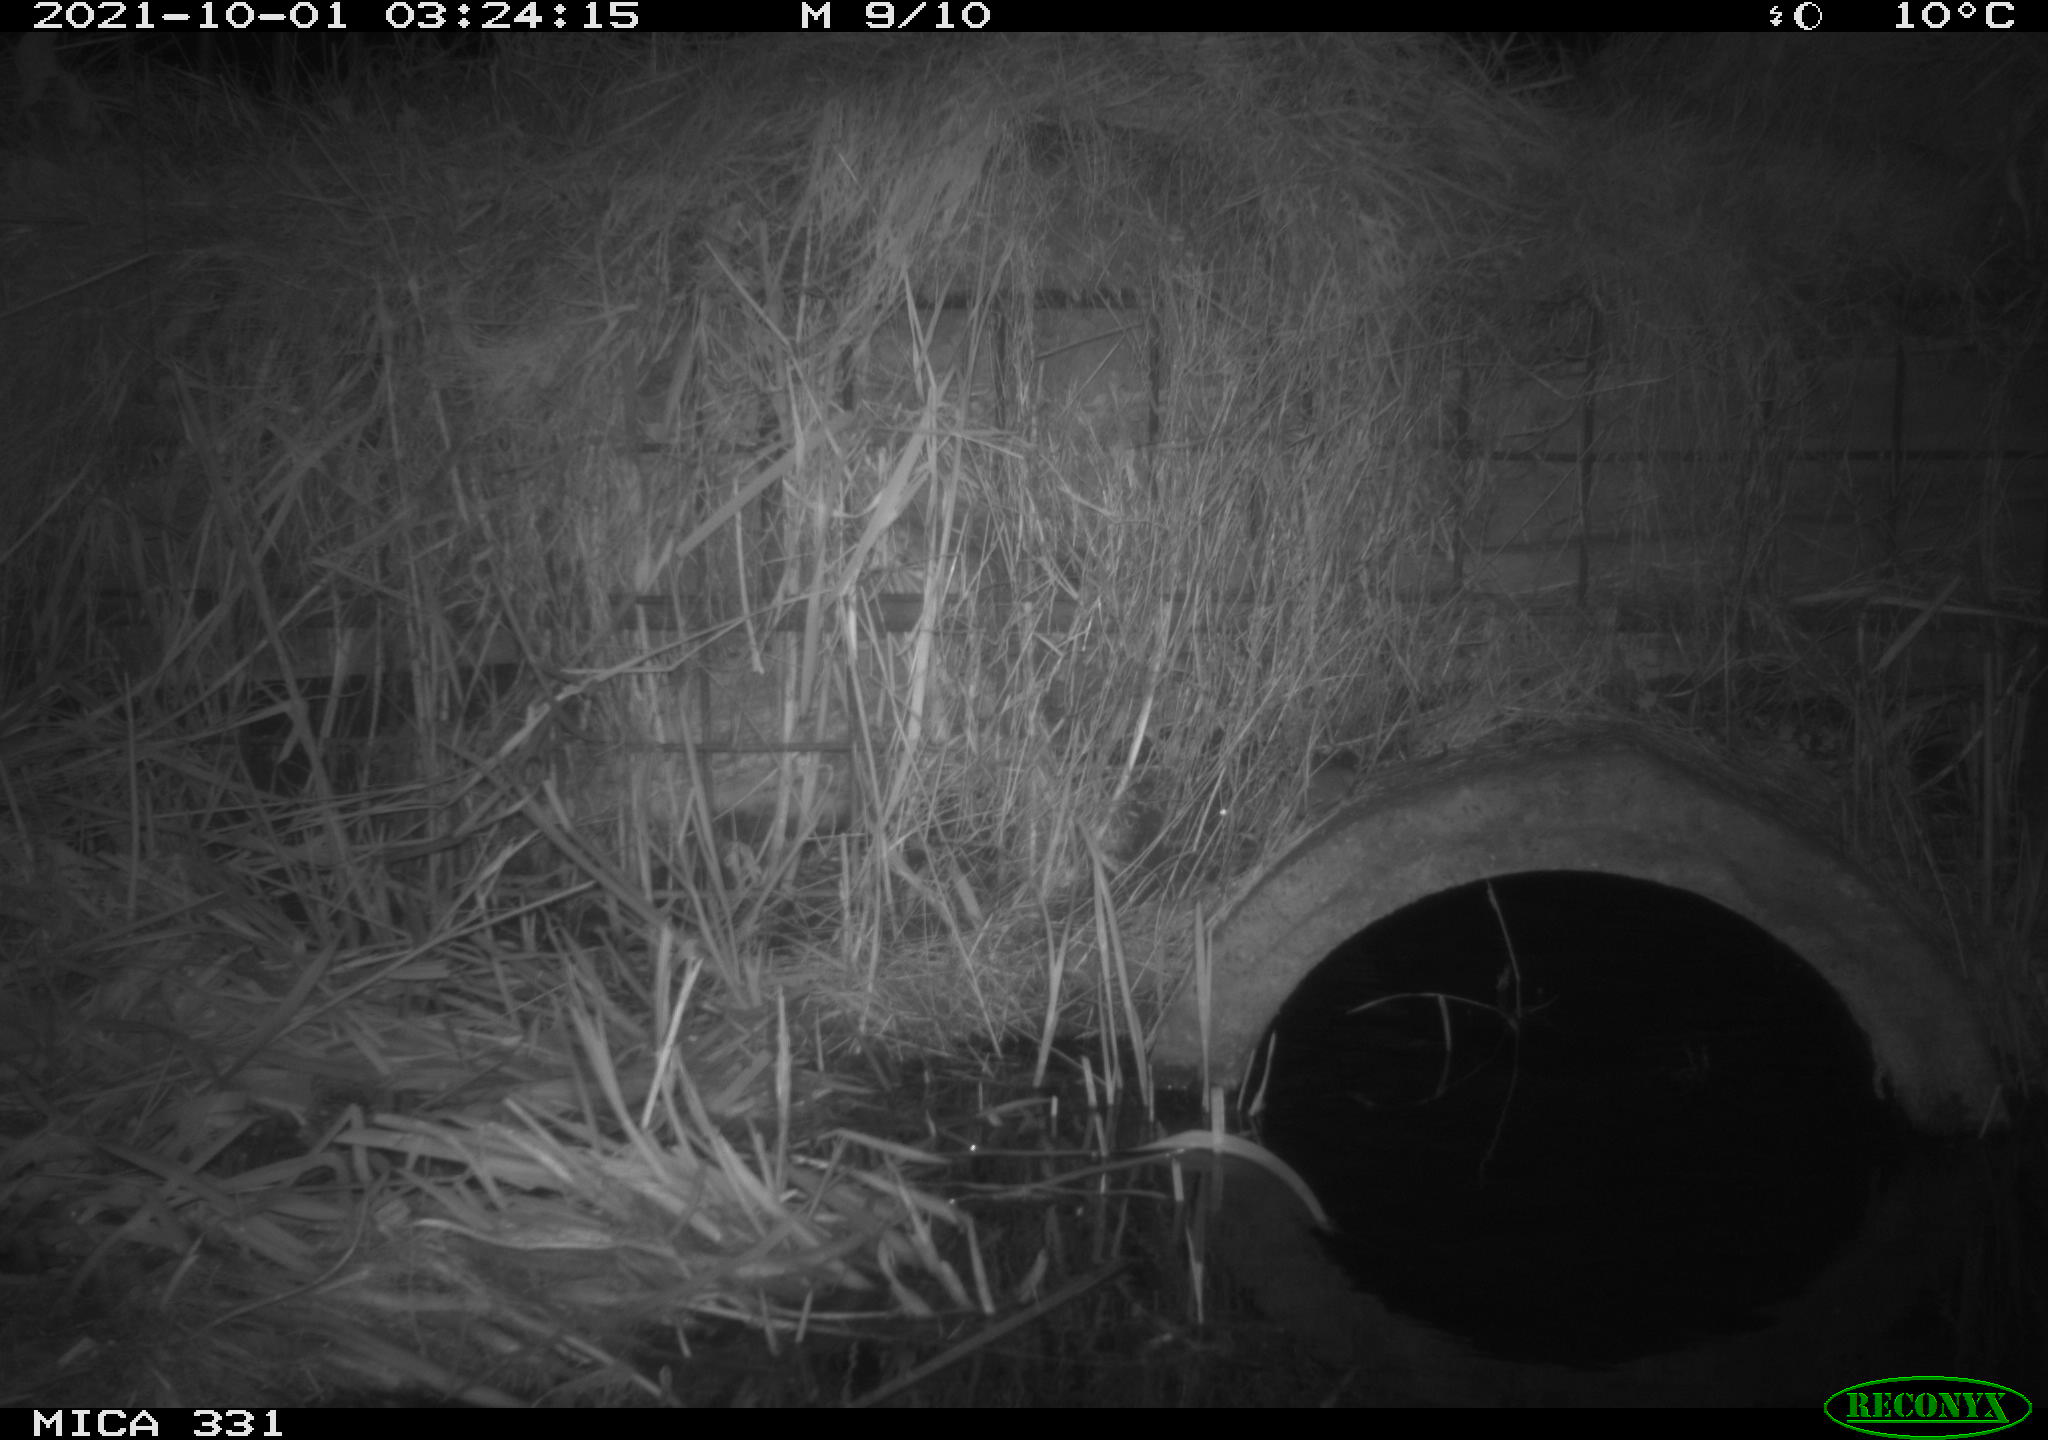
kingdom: Animalia
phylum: Chordata
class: Mammalia
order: Rodentia
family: Muridae
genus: Rattus
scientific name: Rattus norvegicus
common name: Brown rat
